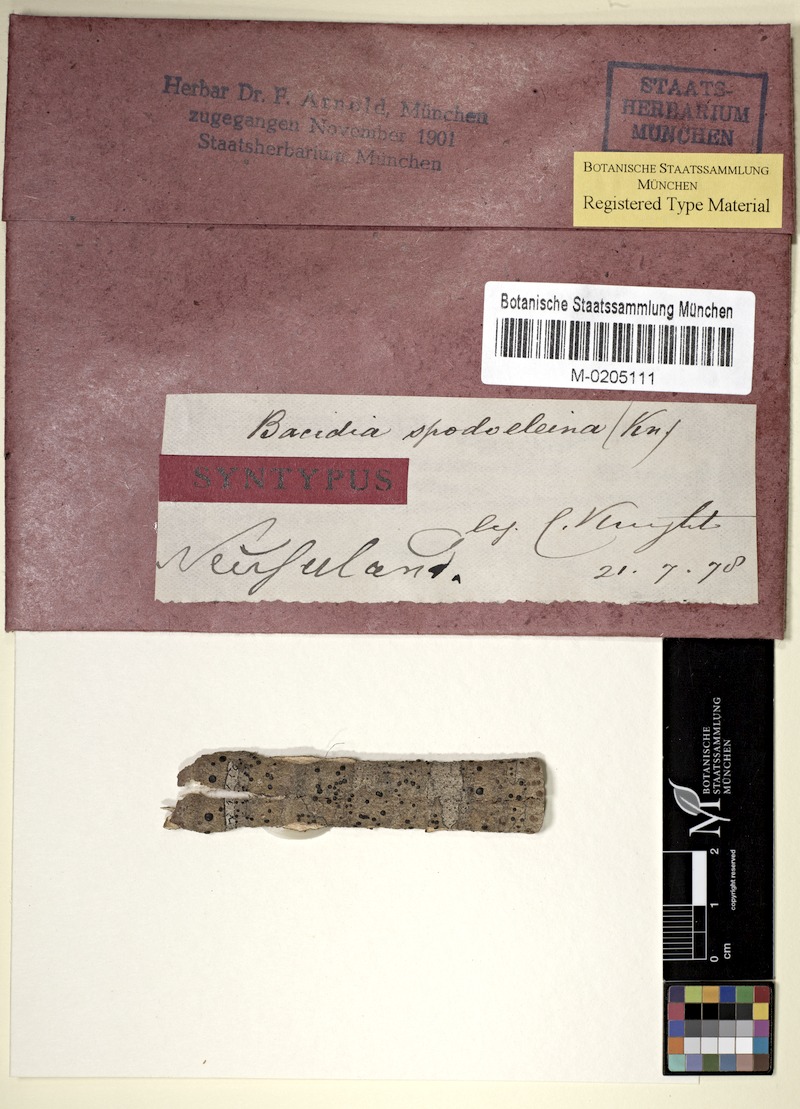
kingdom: Fungi
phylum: Ascomycota
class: Lecanoromycetes
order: Lecanorales
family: Ramalinaceae
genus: Bacidia
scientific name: Bacidia wellingtonii
